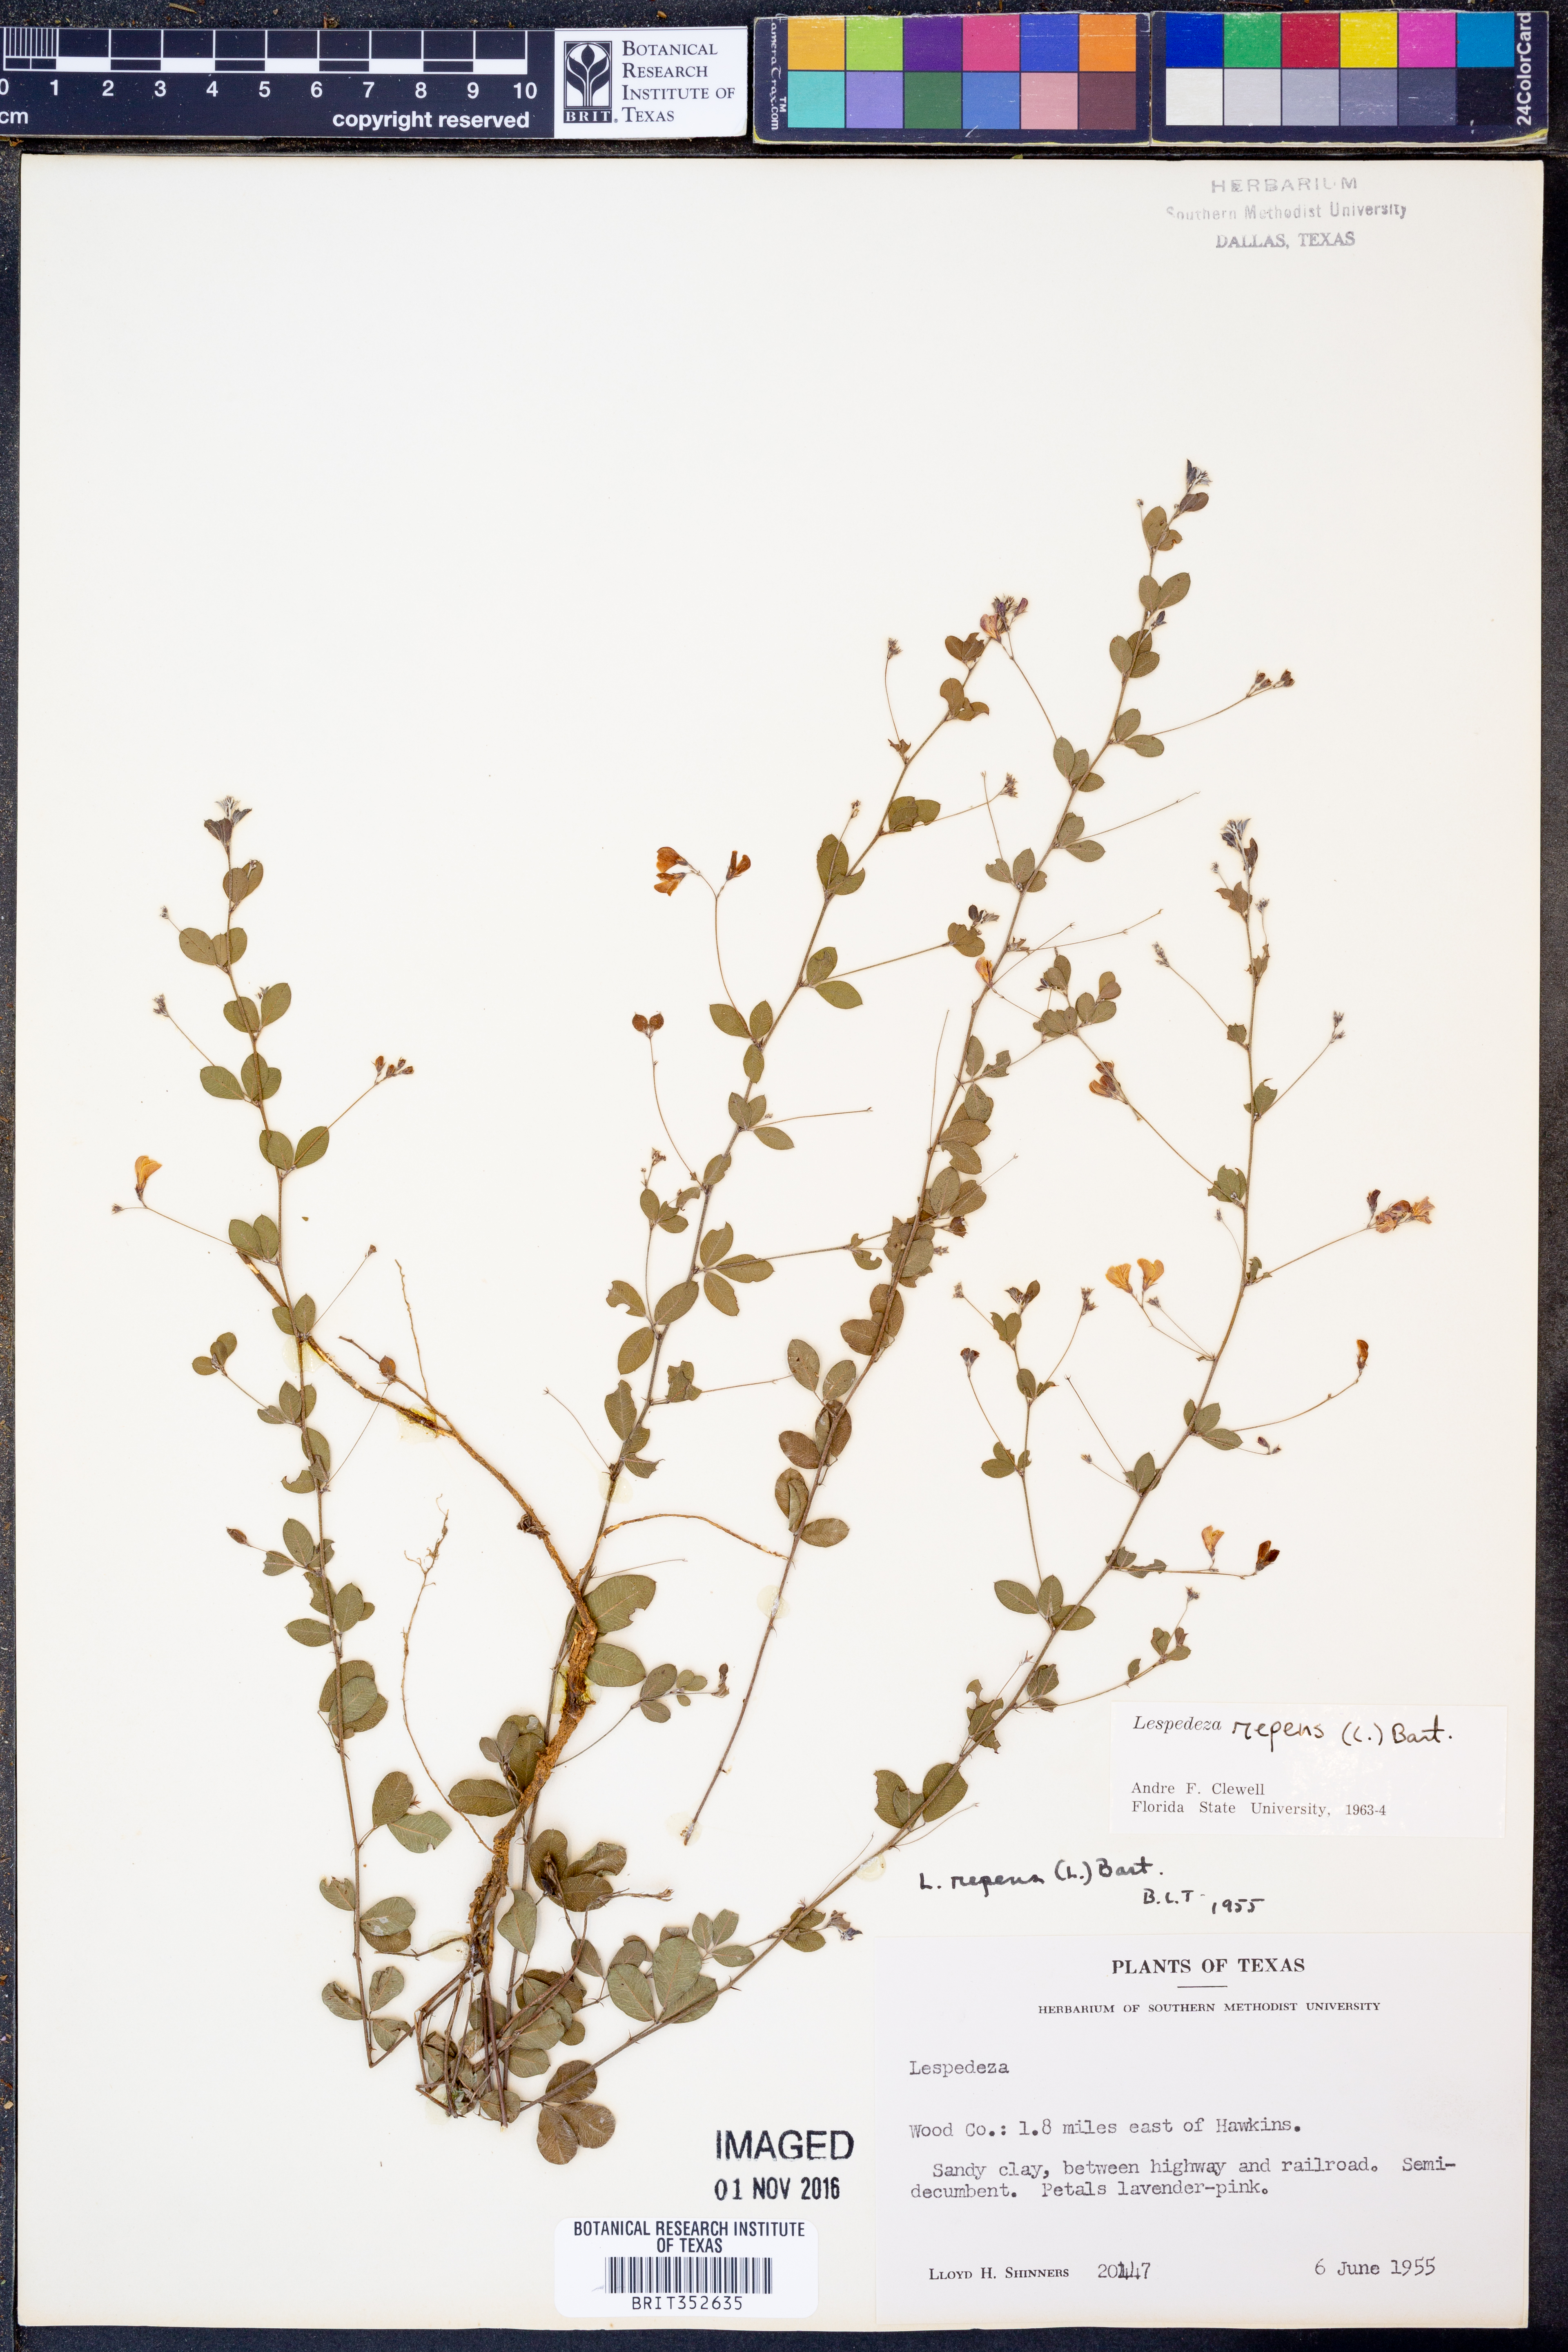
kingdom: Plantae
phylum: Tracheophyta
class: Magnoliopsida
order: Fabales
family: Fabaceae
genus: Lespedeza
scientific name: Lespedeza repens
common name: Creeping bush-clover
